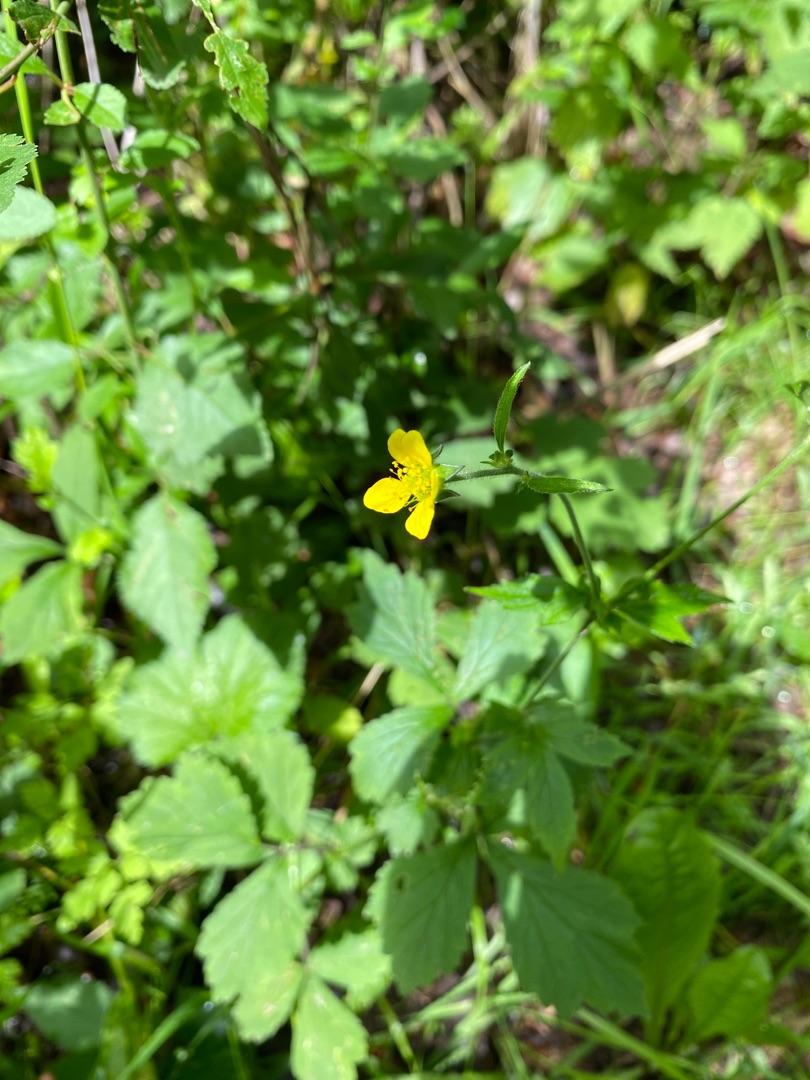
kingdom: Plantae
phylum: Tracheophyta
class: Magnoliopsida
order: Rosales
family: Rosaceae
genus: Geum
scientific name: Geum urbanum
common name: Feber-nellikerod
